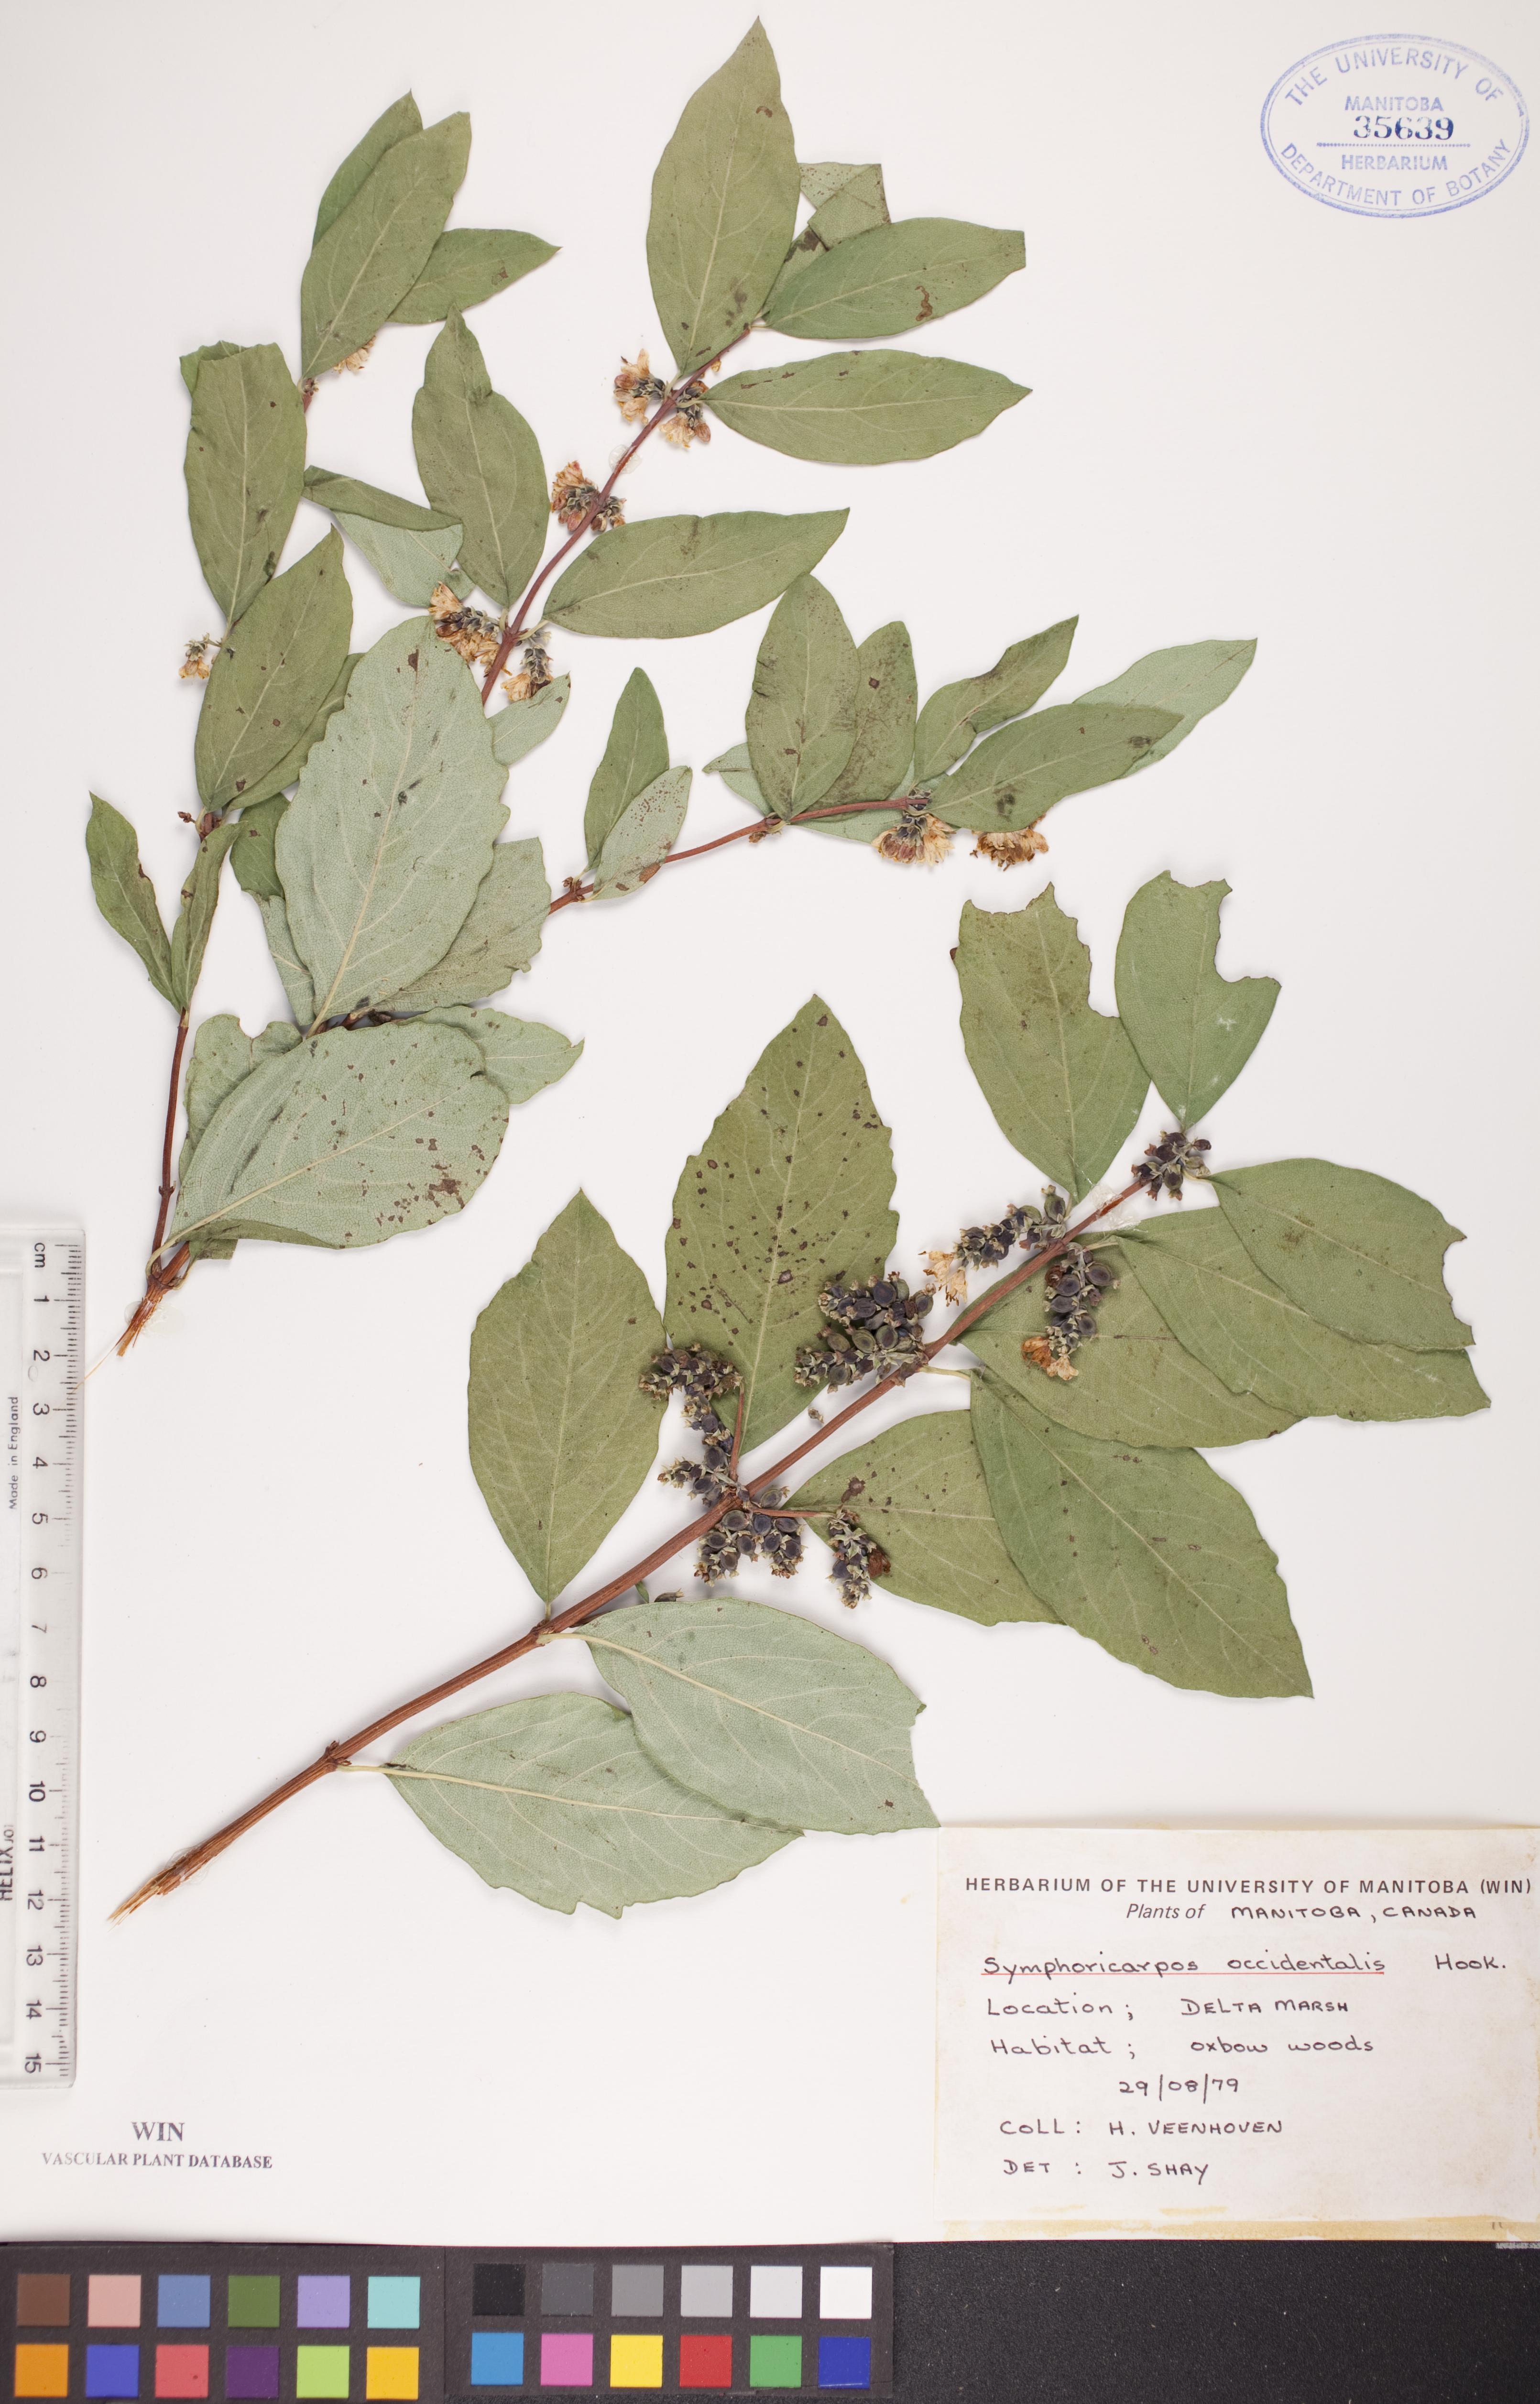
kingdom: Plantae
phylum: Tracheophyta
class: Magnoliopsida
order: Dipsacales
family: Caprifoliaceae
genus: Symphoricarpos
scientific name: Symphoricarpos occidentalis
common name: Wolfberry
